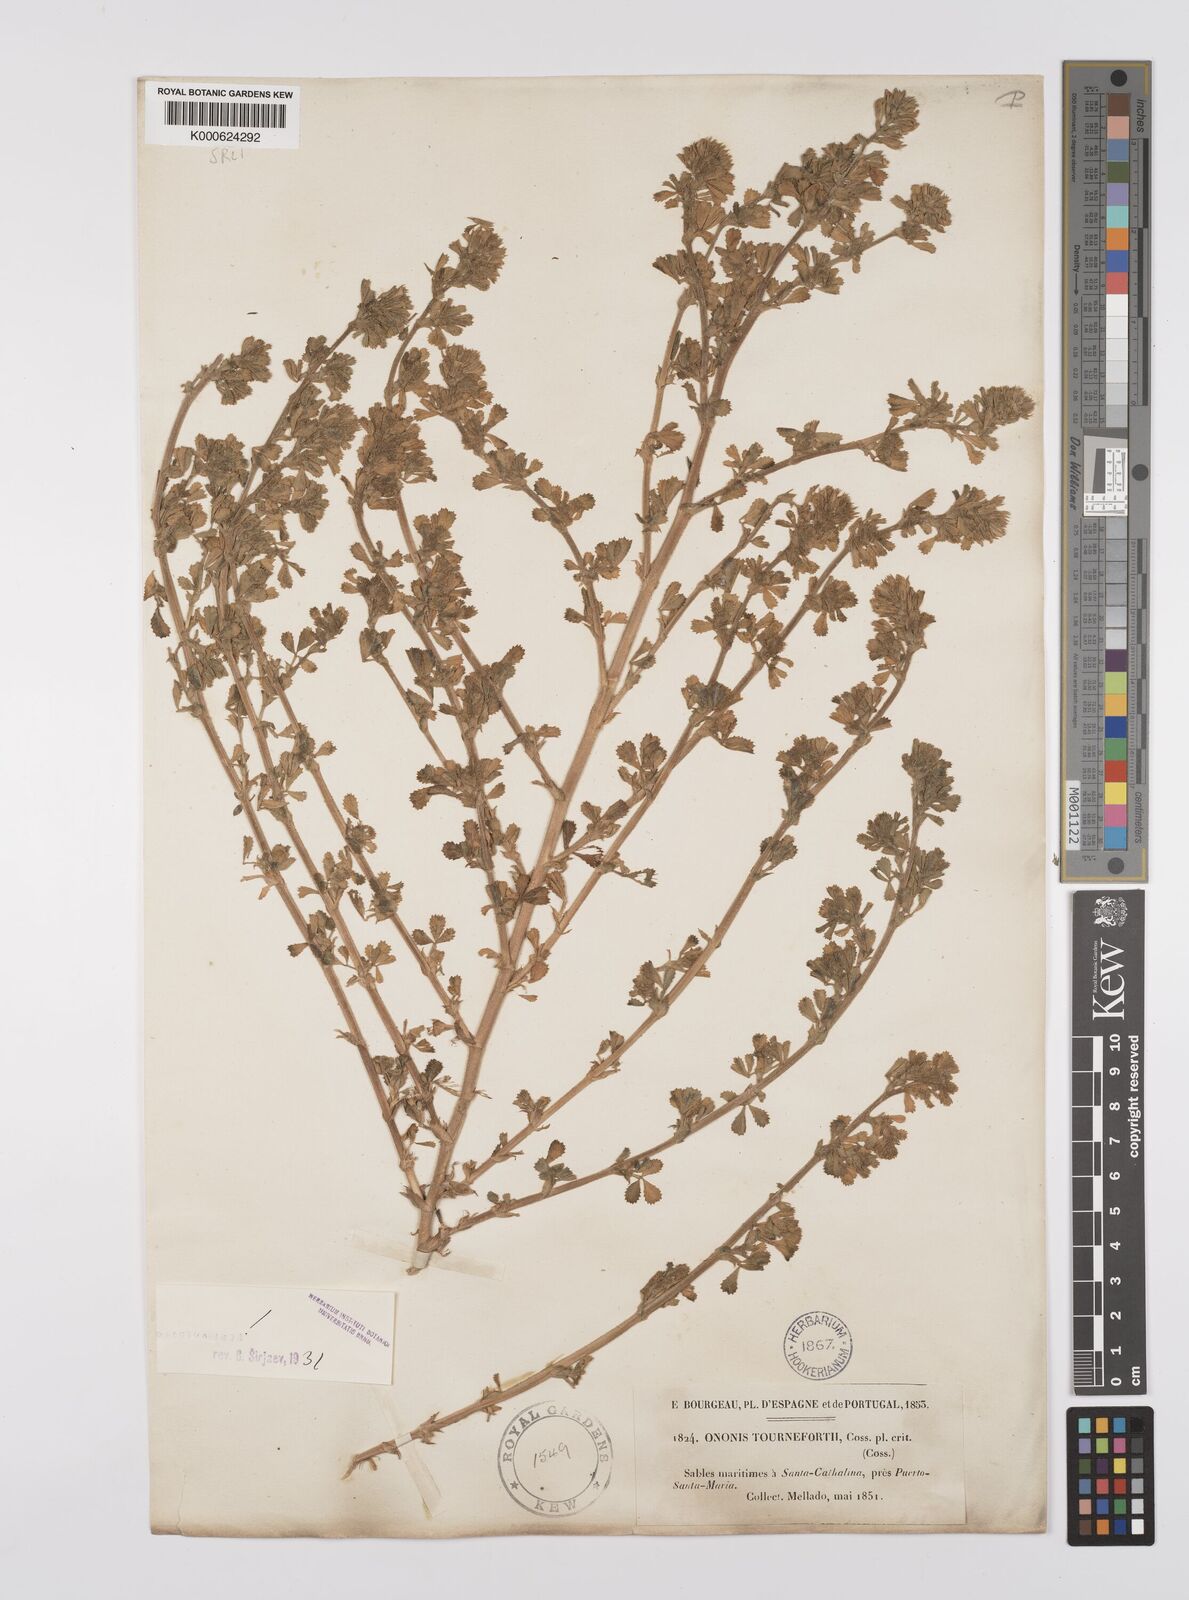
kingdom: Plantae
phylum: Tracheophyta
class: Magnoliopsida
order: Fabales
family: Fabaceae
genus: Ononis
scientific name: Ononis tournefortii
